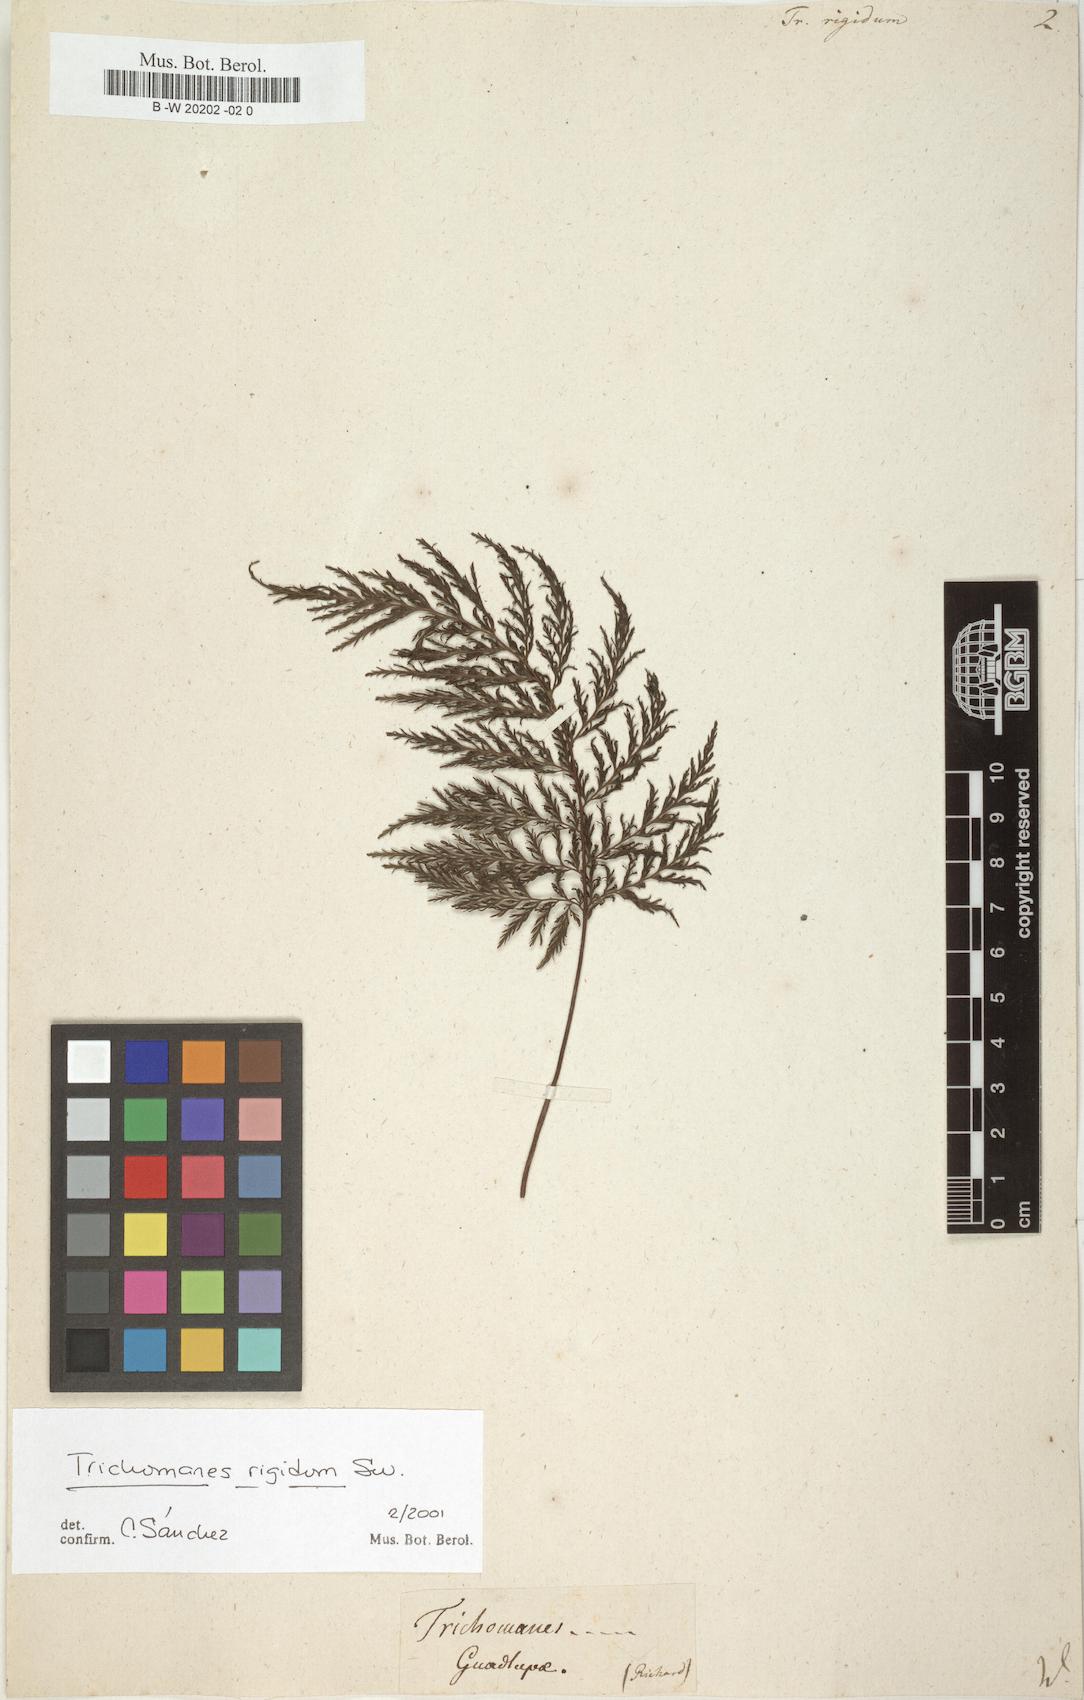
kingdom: Plantae
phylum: Tracheophyta
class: Polypodiopsida
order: Hymenophyllales
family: Hymenophyllaceae
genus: Abrodictyum
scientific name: Abrodictyum rigidum
